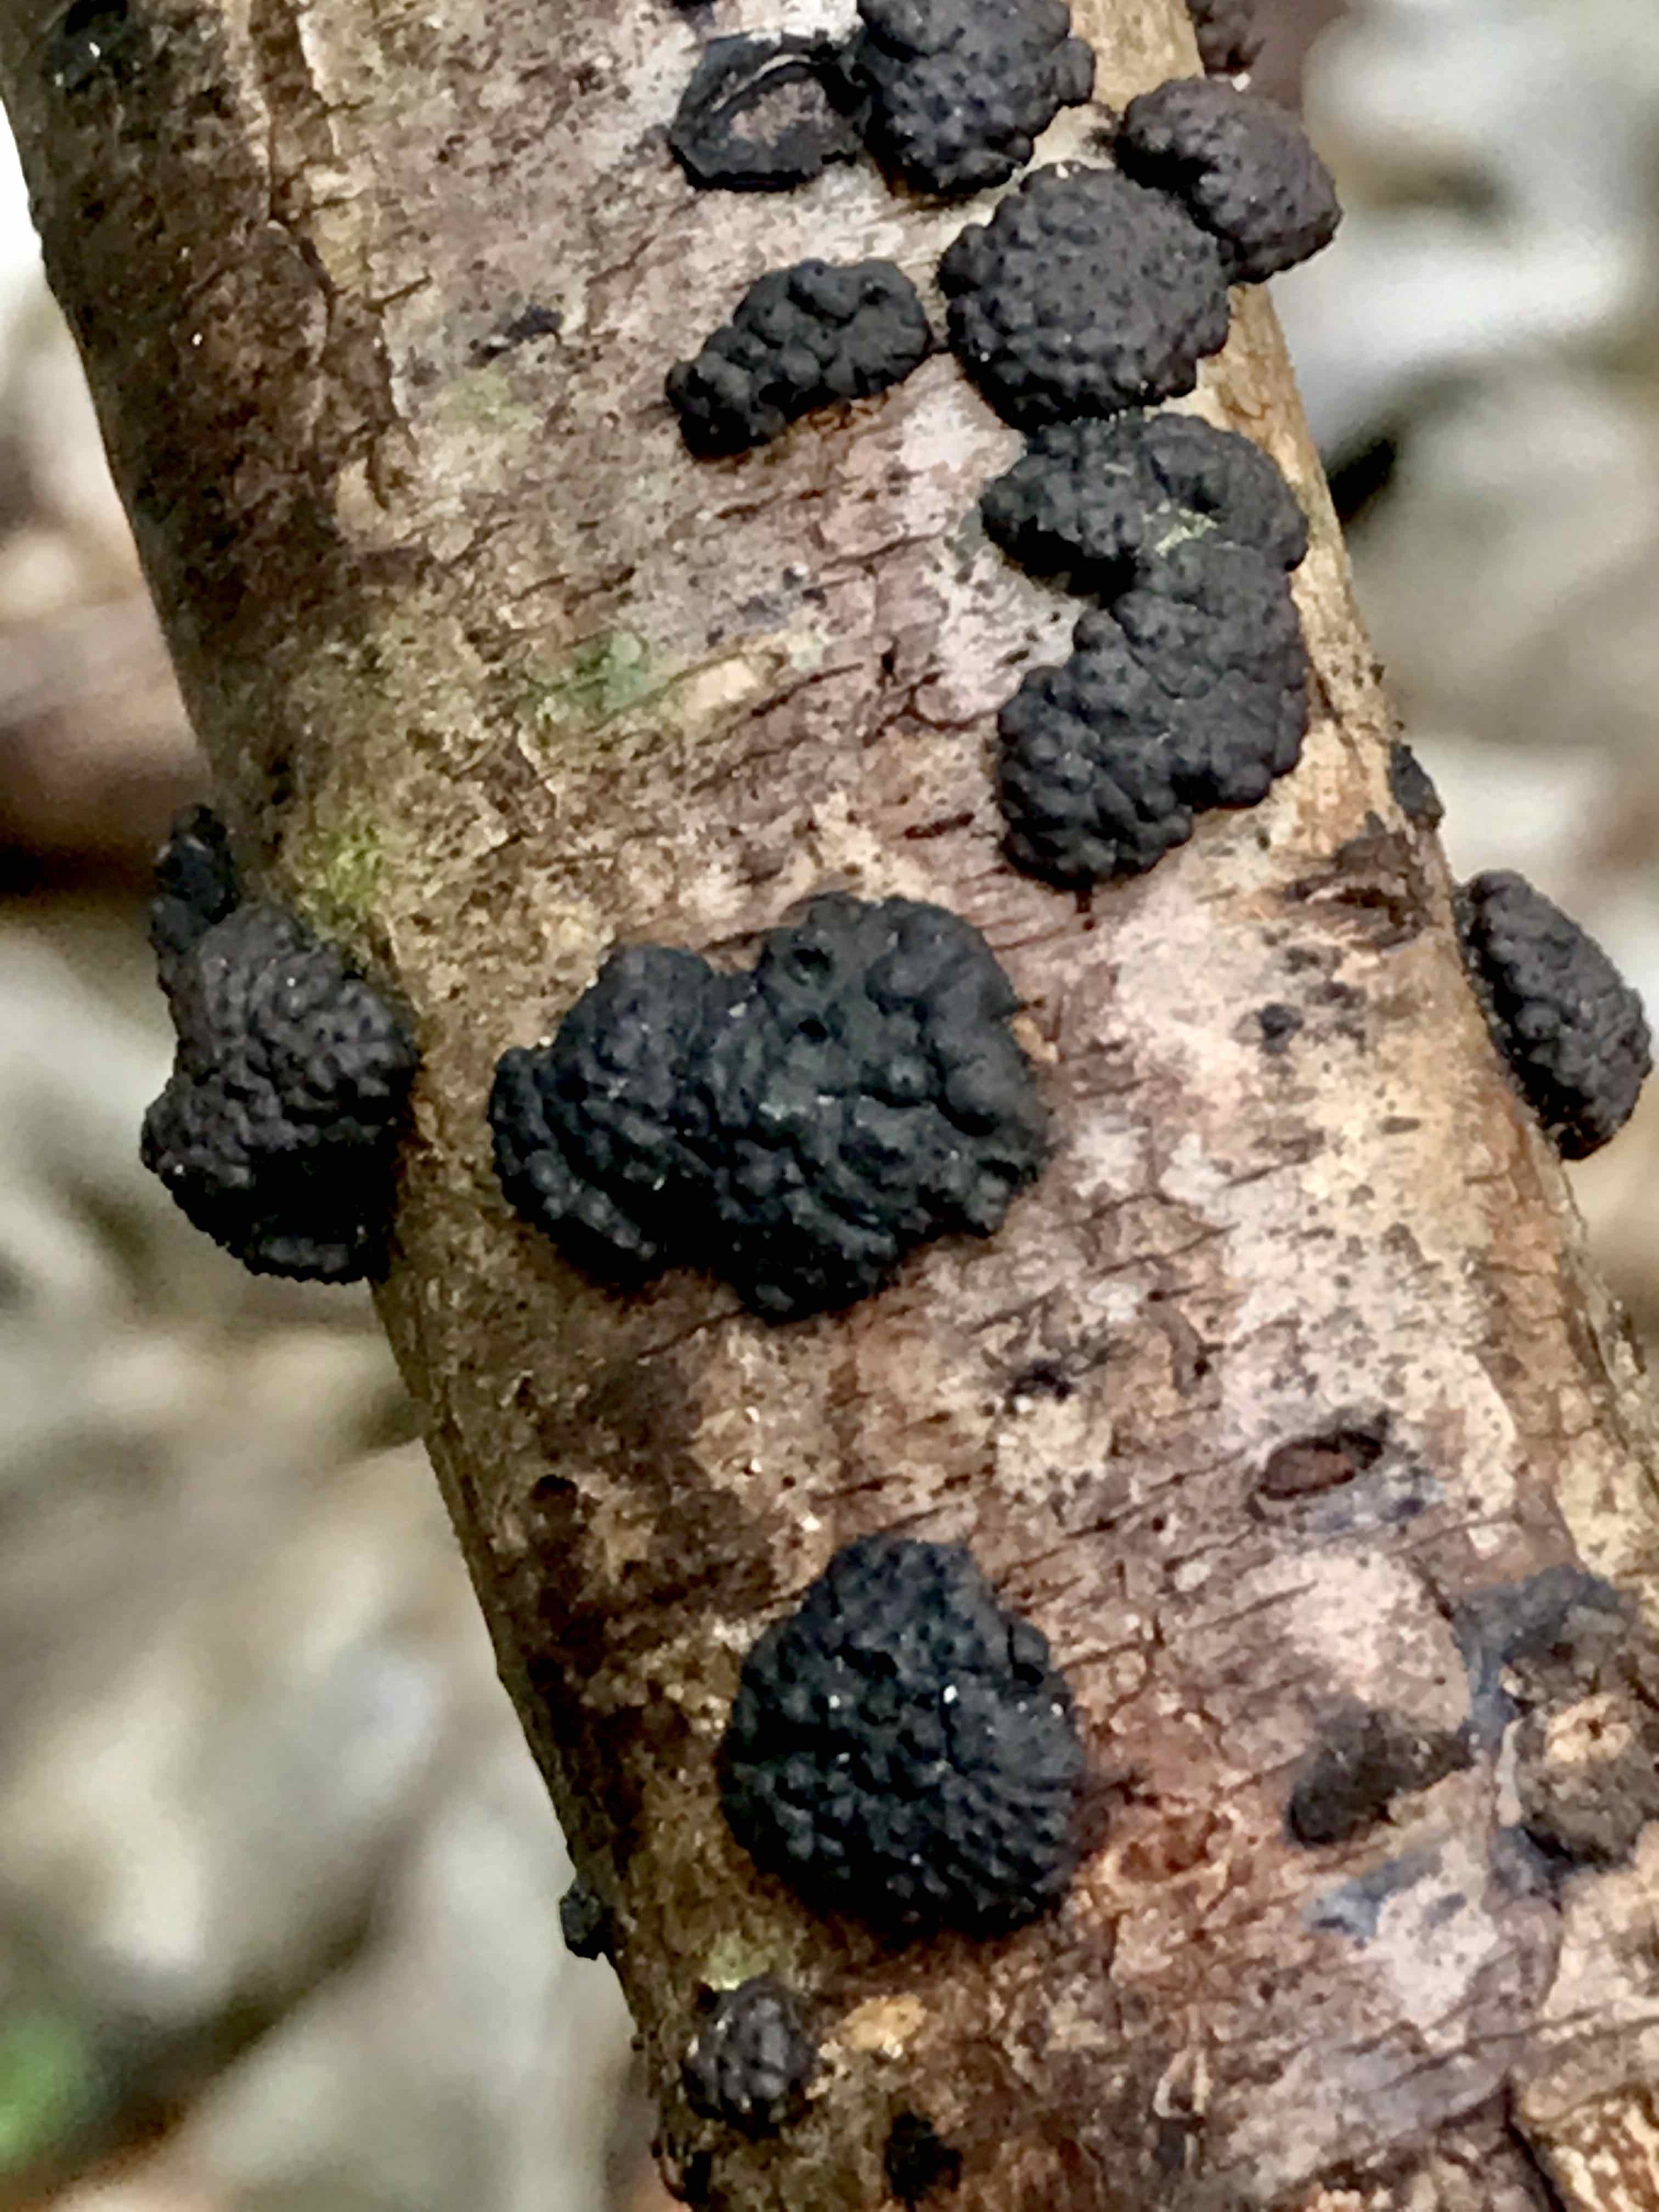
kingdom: Fungi
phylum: Ascomycota
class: Sordariomycetes
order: Xylariales
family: Hypoxylaceae
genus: Jackrogersella
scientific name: Jackrogersella multiformis
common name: foranderlig kulbær
